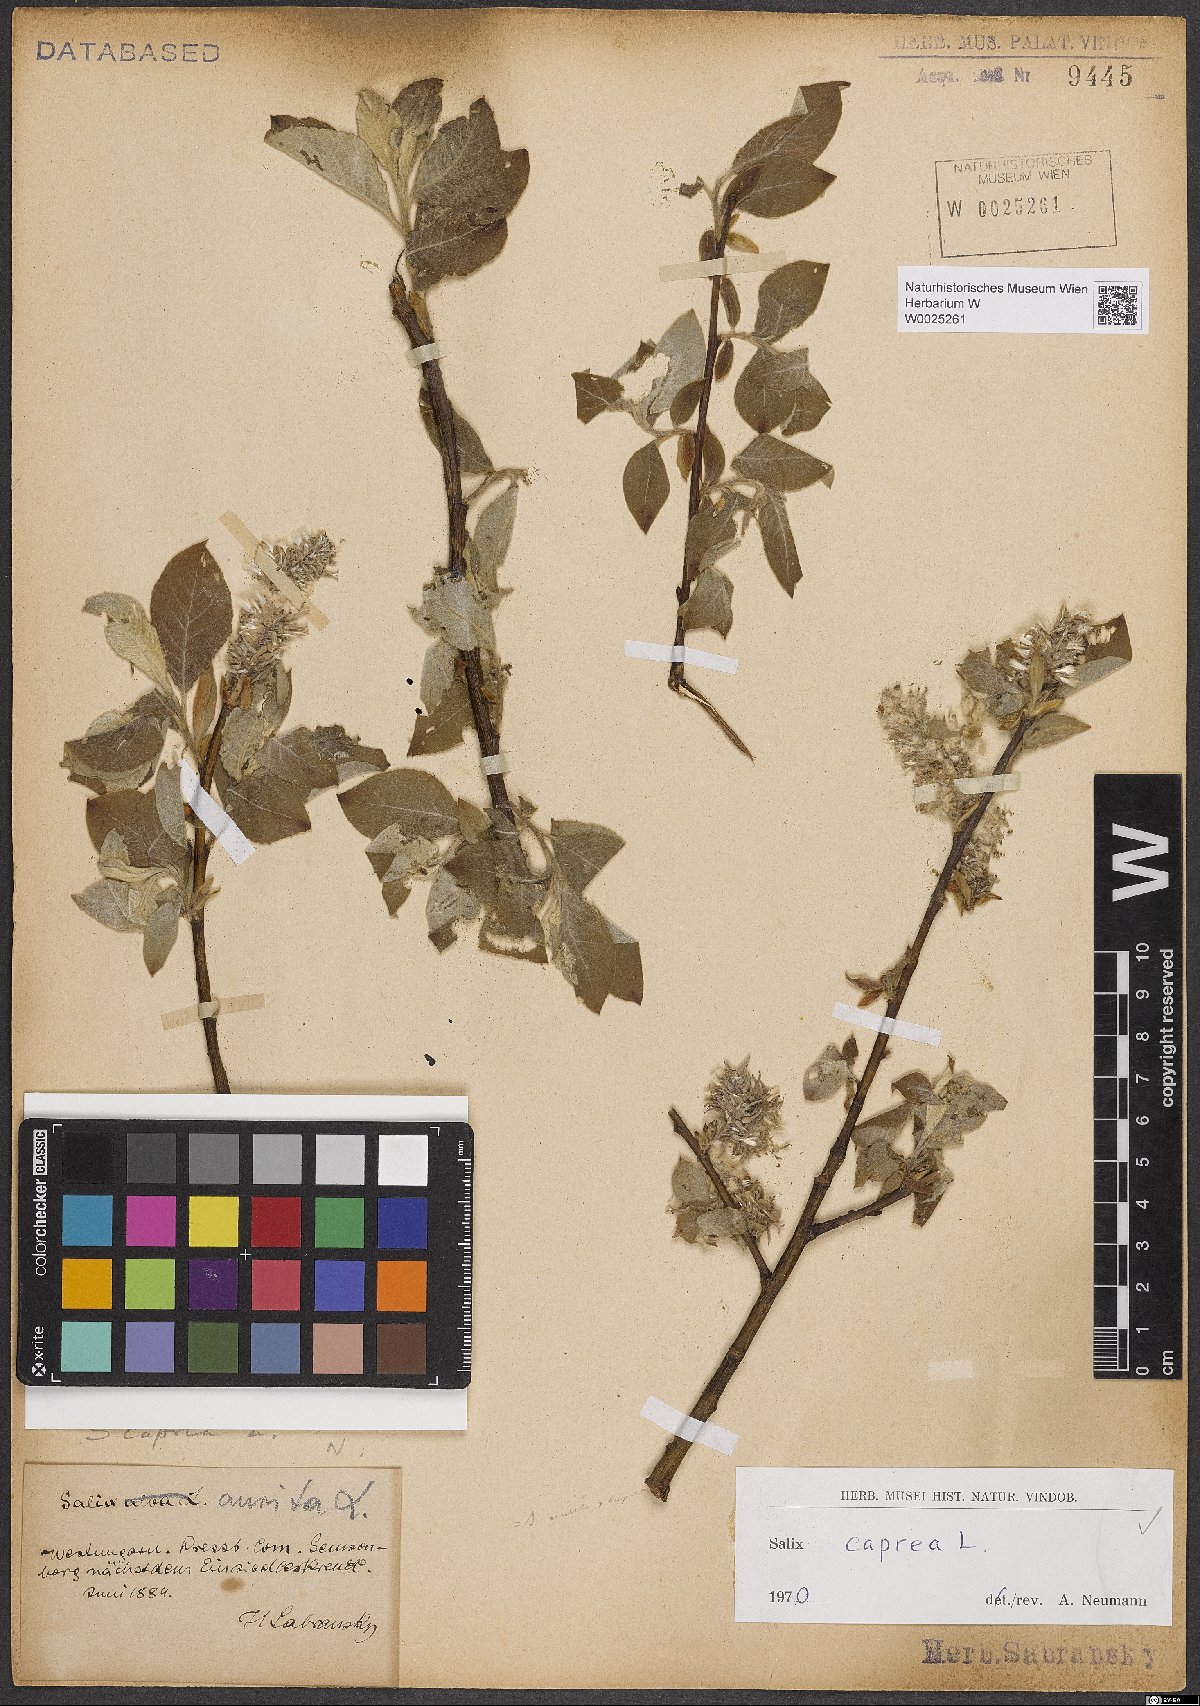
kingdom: Plantae
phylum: Tracheophyta
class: Magnoliopsida
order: Malpighiales
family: Salicaceae
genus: Salix
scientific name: Salix caprea
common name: Goat willow
